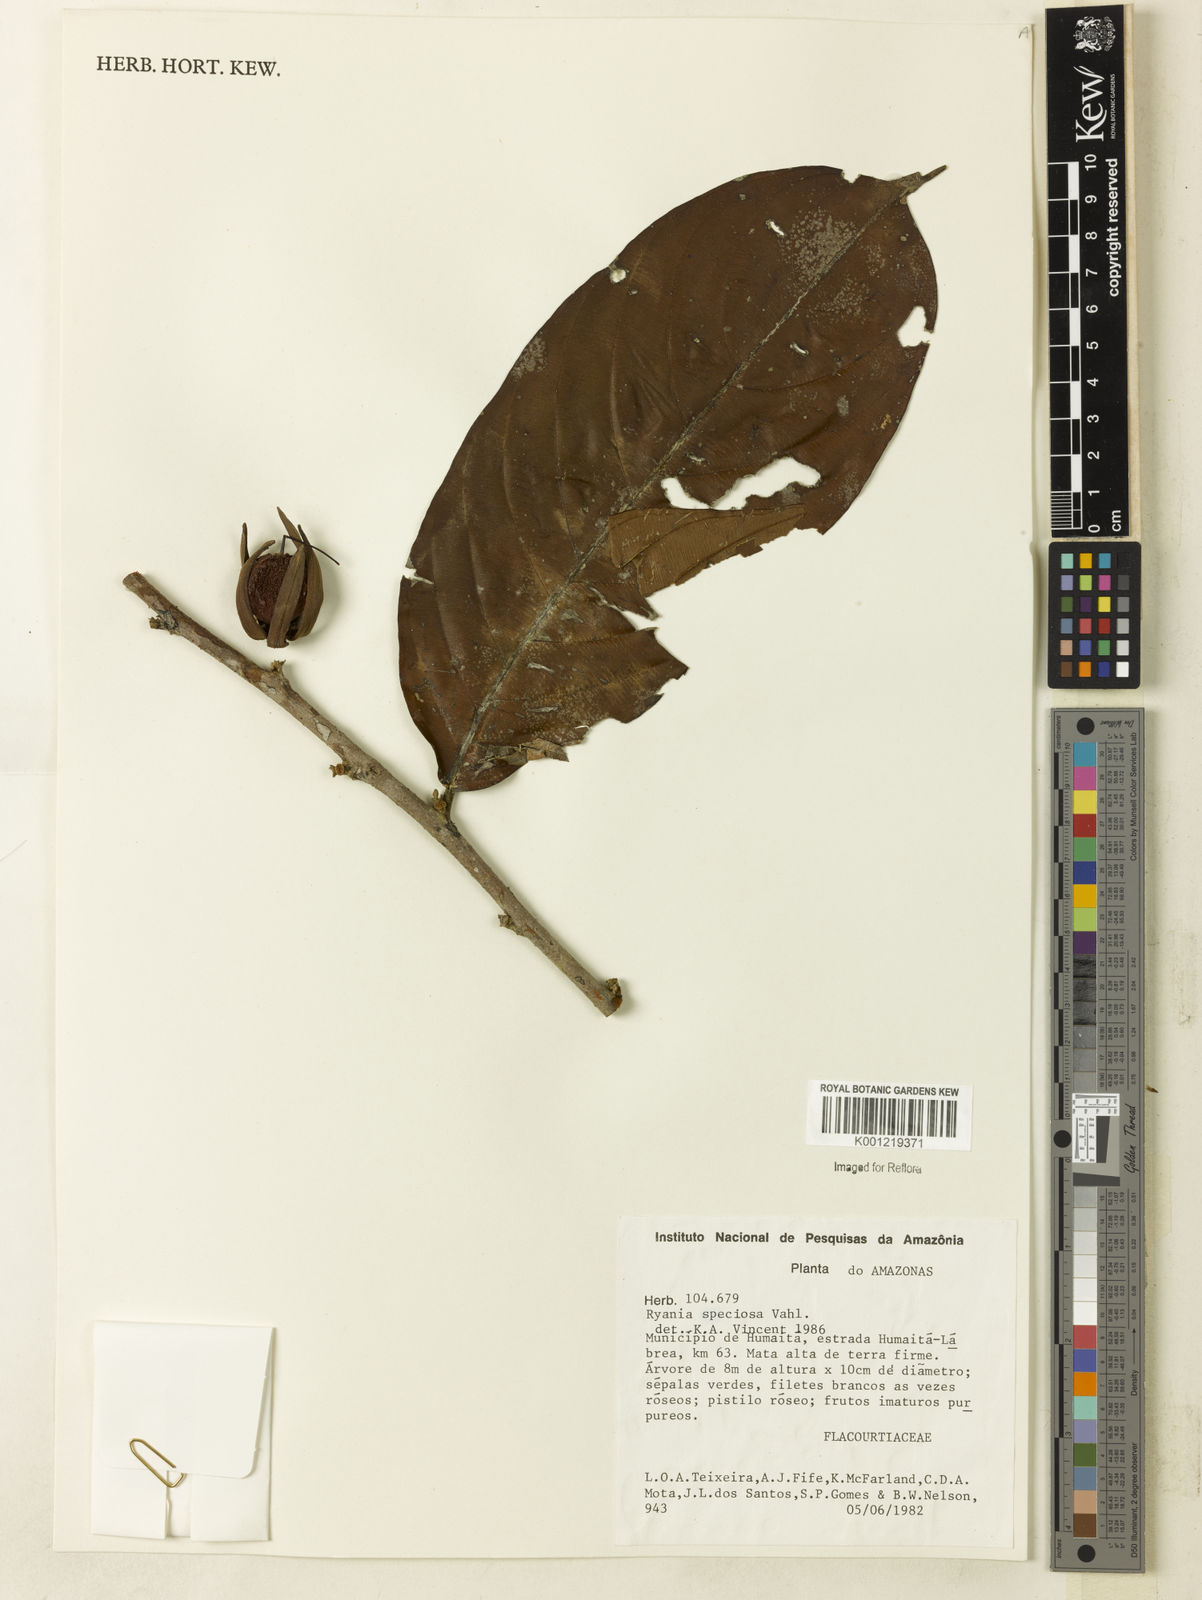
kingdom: Plantae
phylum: Tracheophyta
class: Magnoliopsida
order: Malpighiales
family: Salicaceae
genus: Ryania
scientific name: Ryania speciosa
